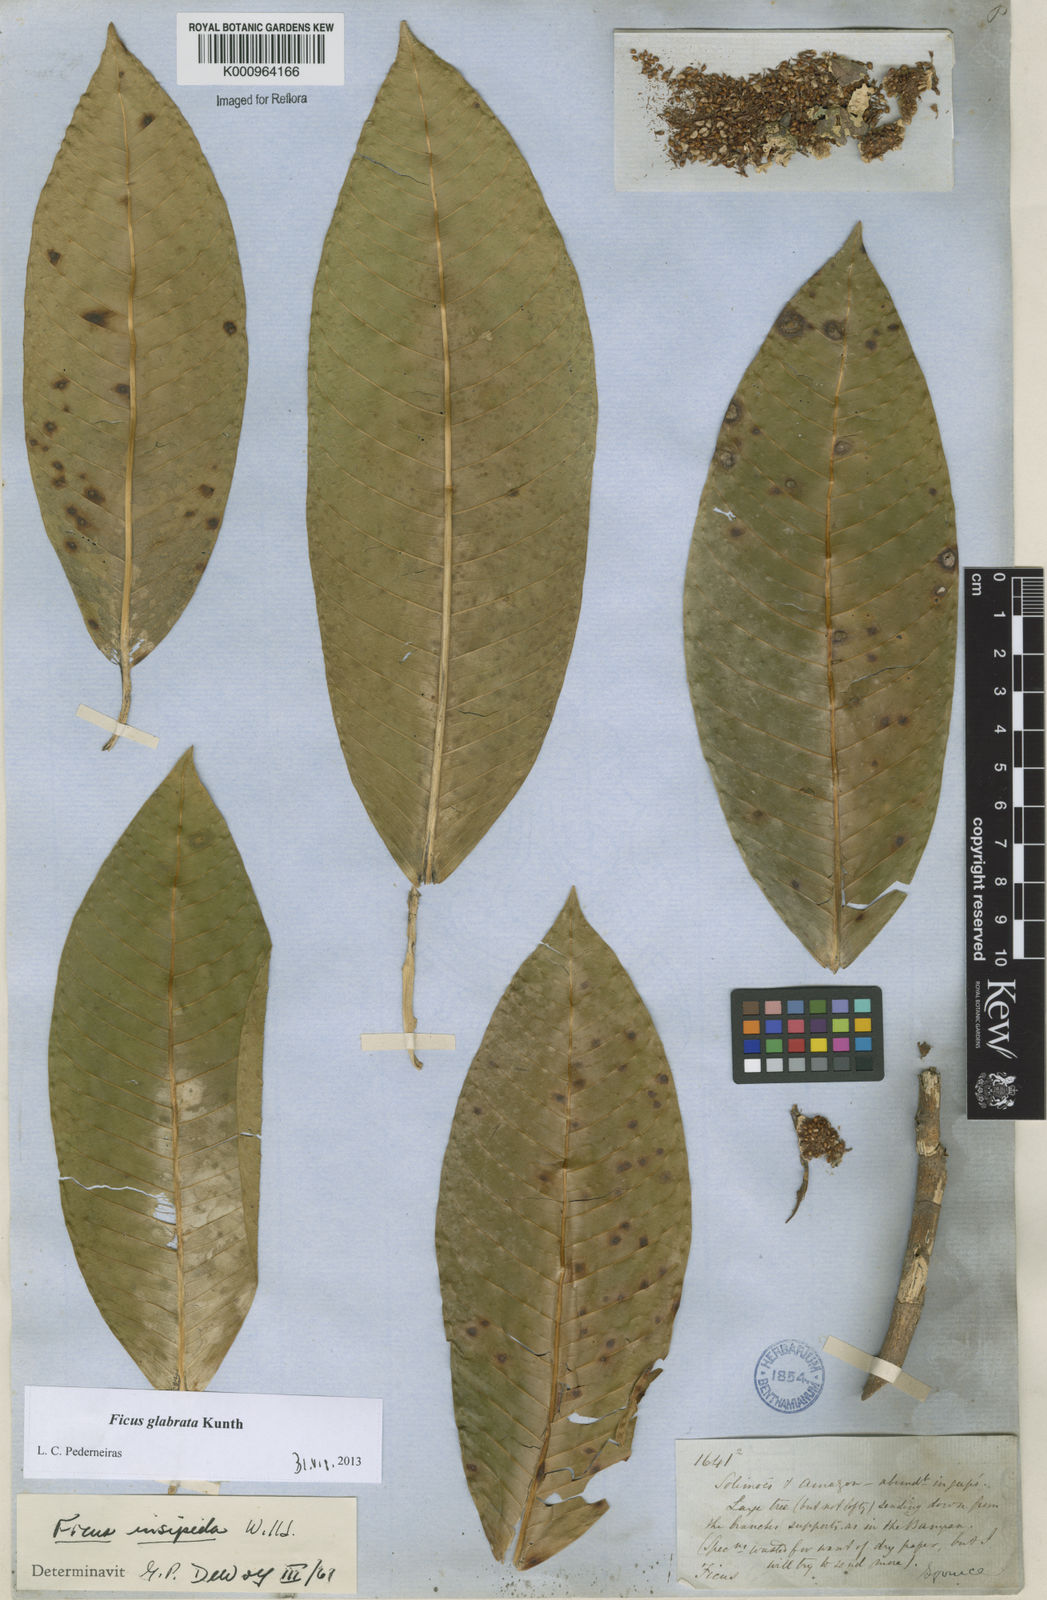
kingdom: Plantae
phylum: Tracheophyta
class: Magnoliopsida
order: Rosales
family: Moraceae
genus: Ficus
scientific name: Ficus insipida
